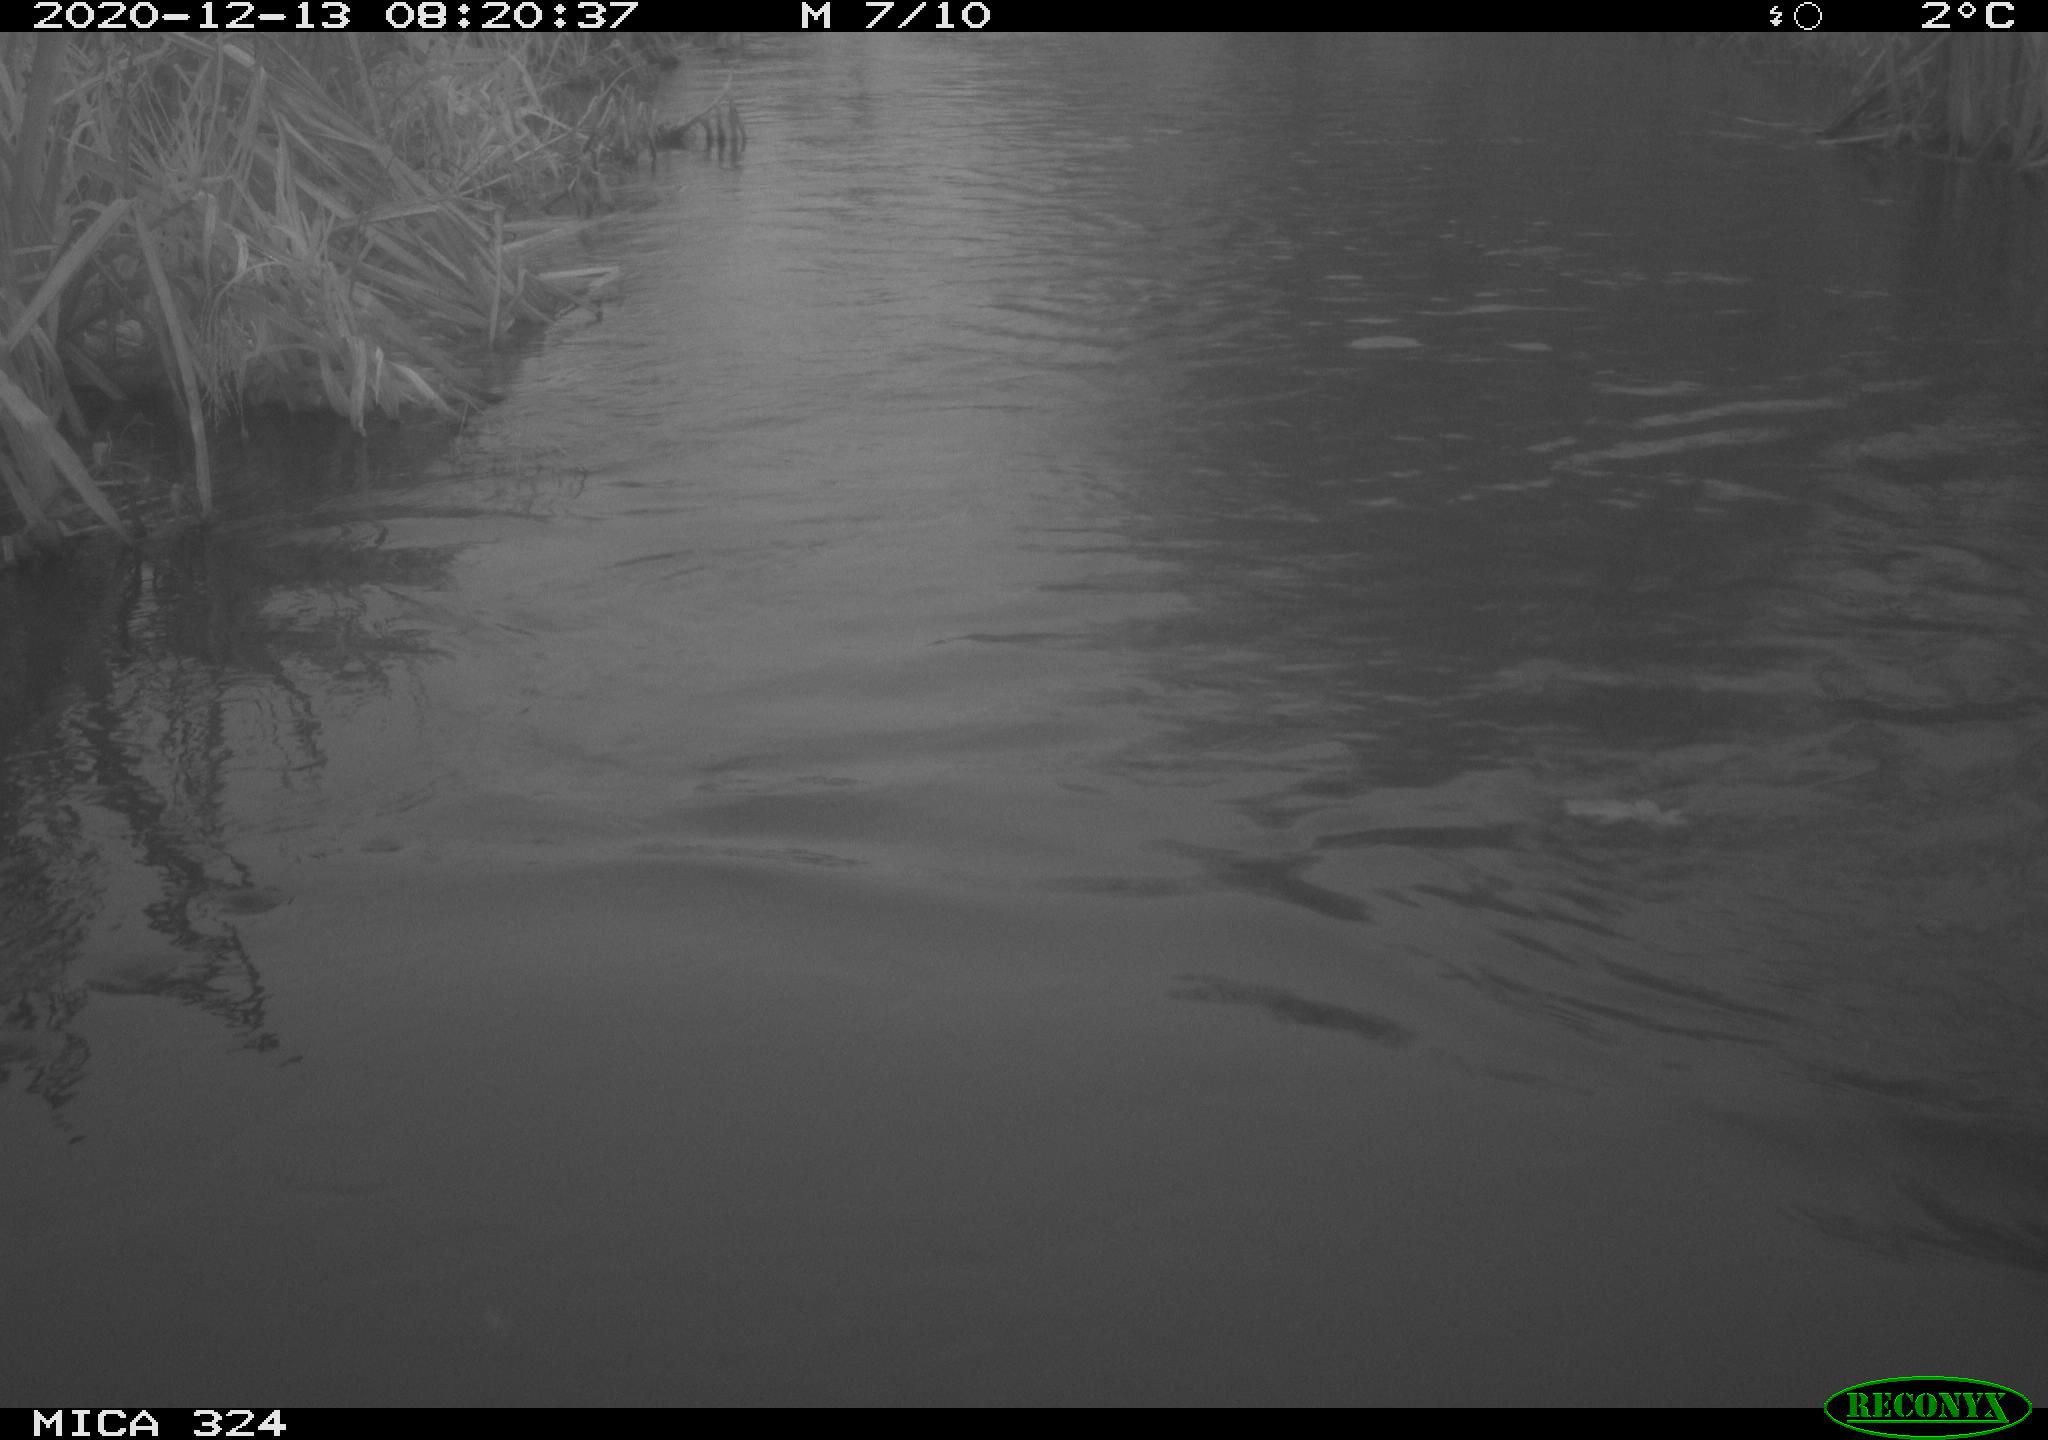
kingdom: Animalia
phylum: Chordata
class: Aves
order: Gruiformes
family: Rallidae
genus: Fulica
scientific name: Fulica atra
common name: Eurasian coot
